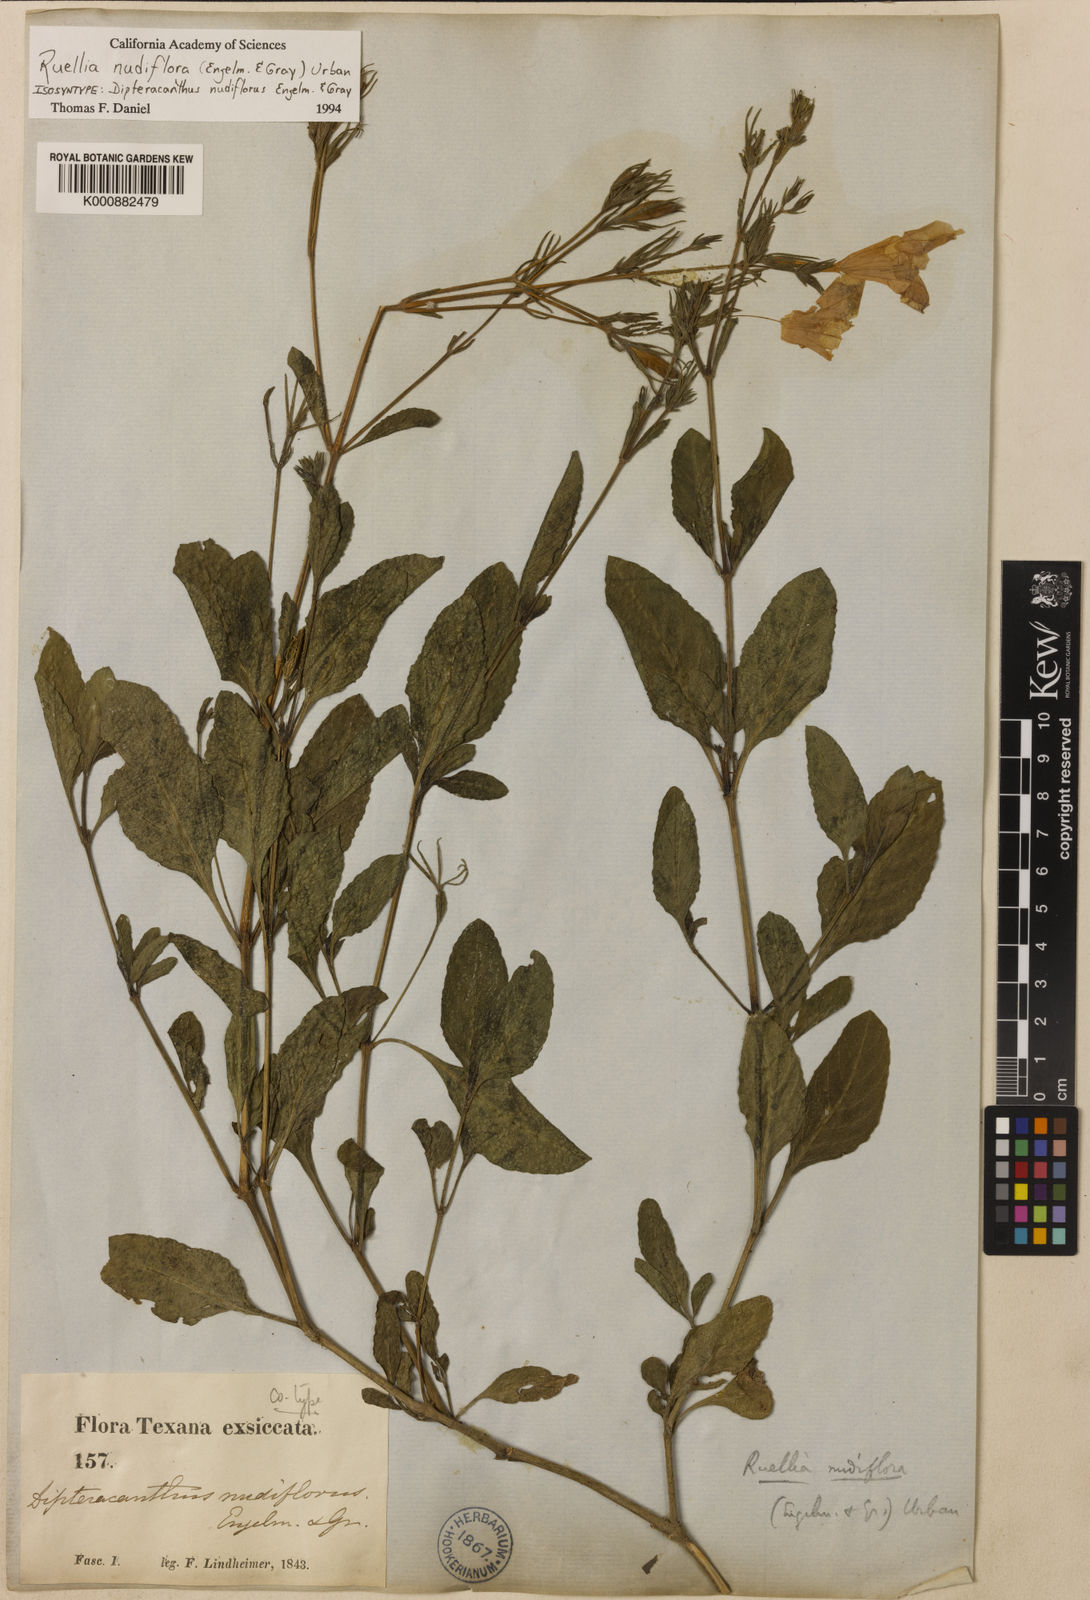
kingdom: Plantae
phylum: Tracheophyta
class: Magnoliopsida
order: Lamiales
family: Acanthaceae
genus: Ruellia
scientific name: Ruellia ciliatiflora
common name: Hairyflower wild petunia
